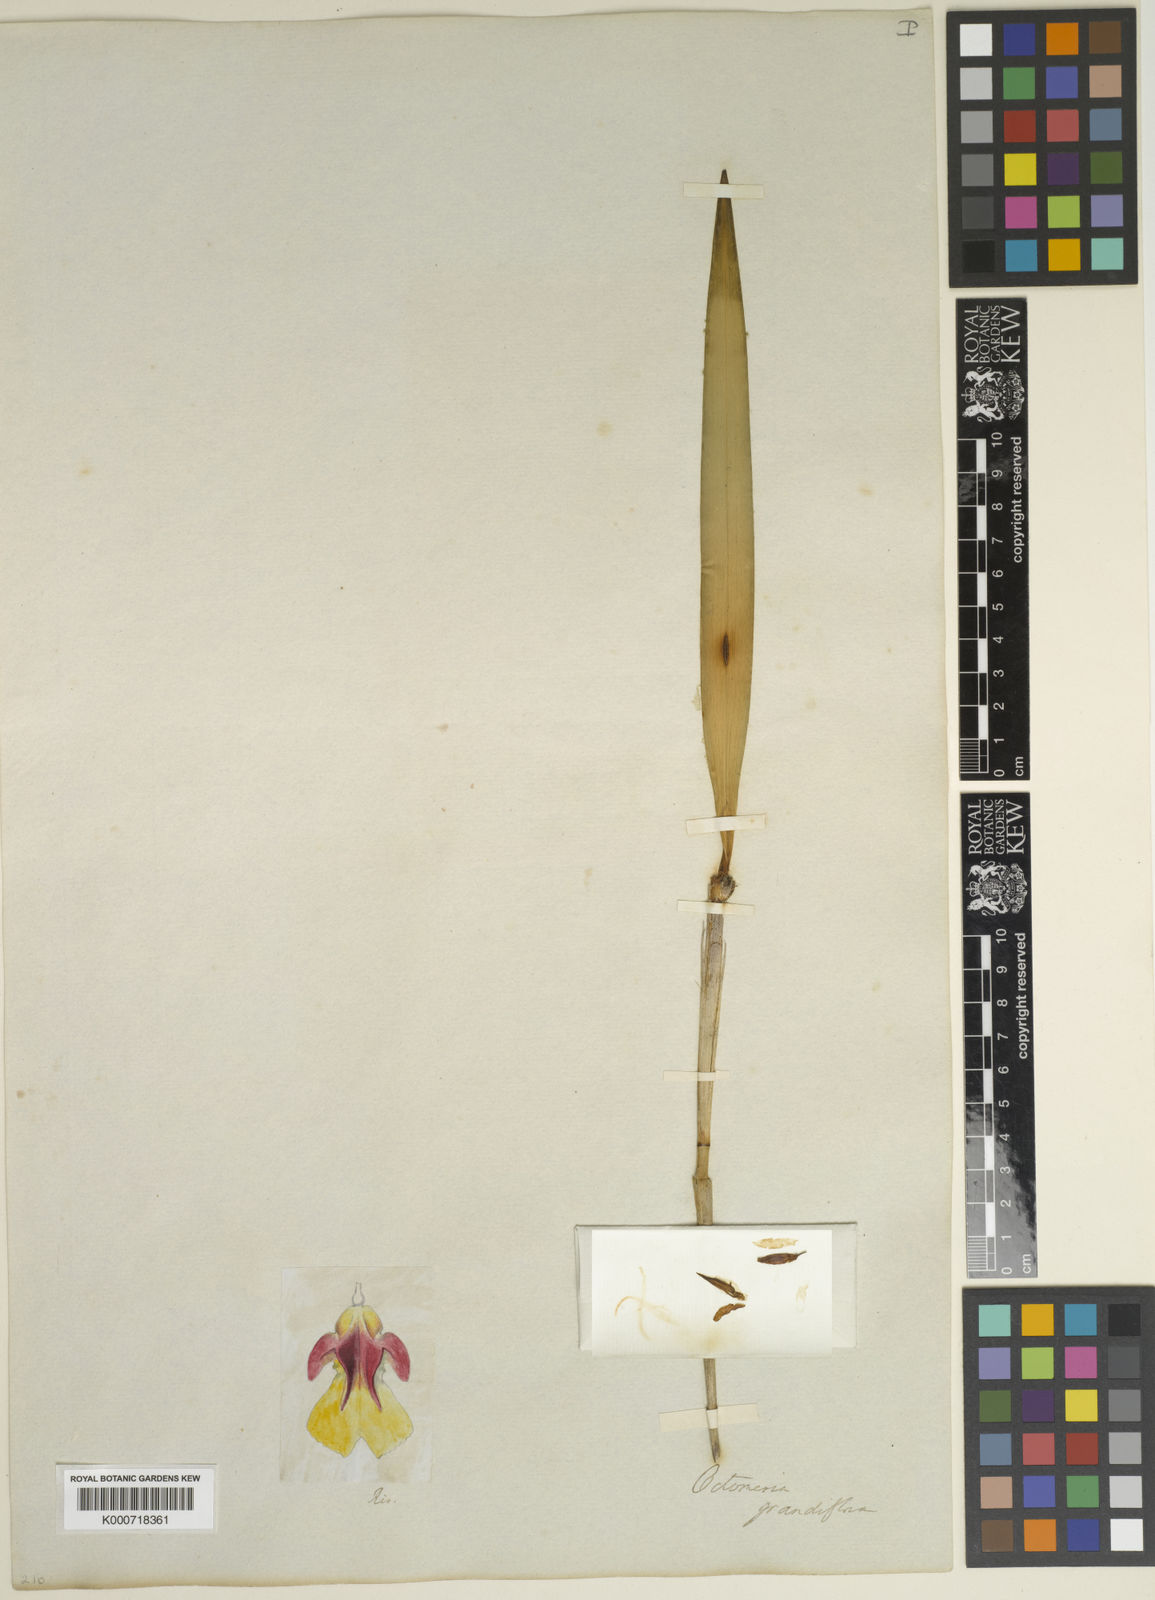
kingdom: Plantae
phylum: Tracheophyta
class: Liliopsida
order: Asparagales
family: Orchidaceae
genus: Octomeria
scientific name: Octomeria grandiflora
